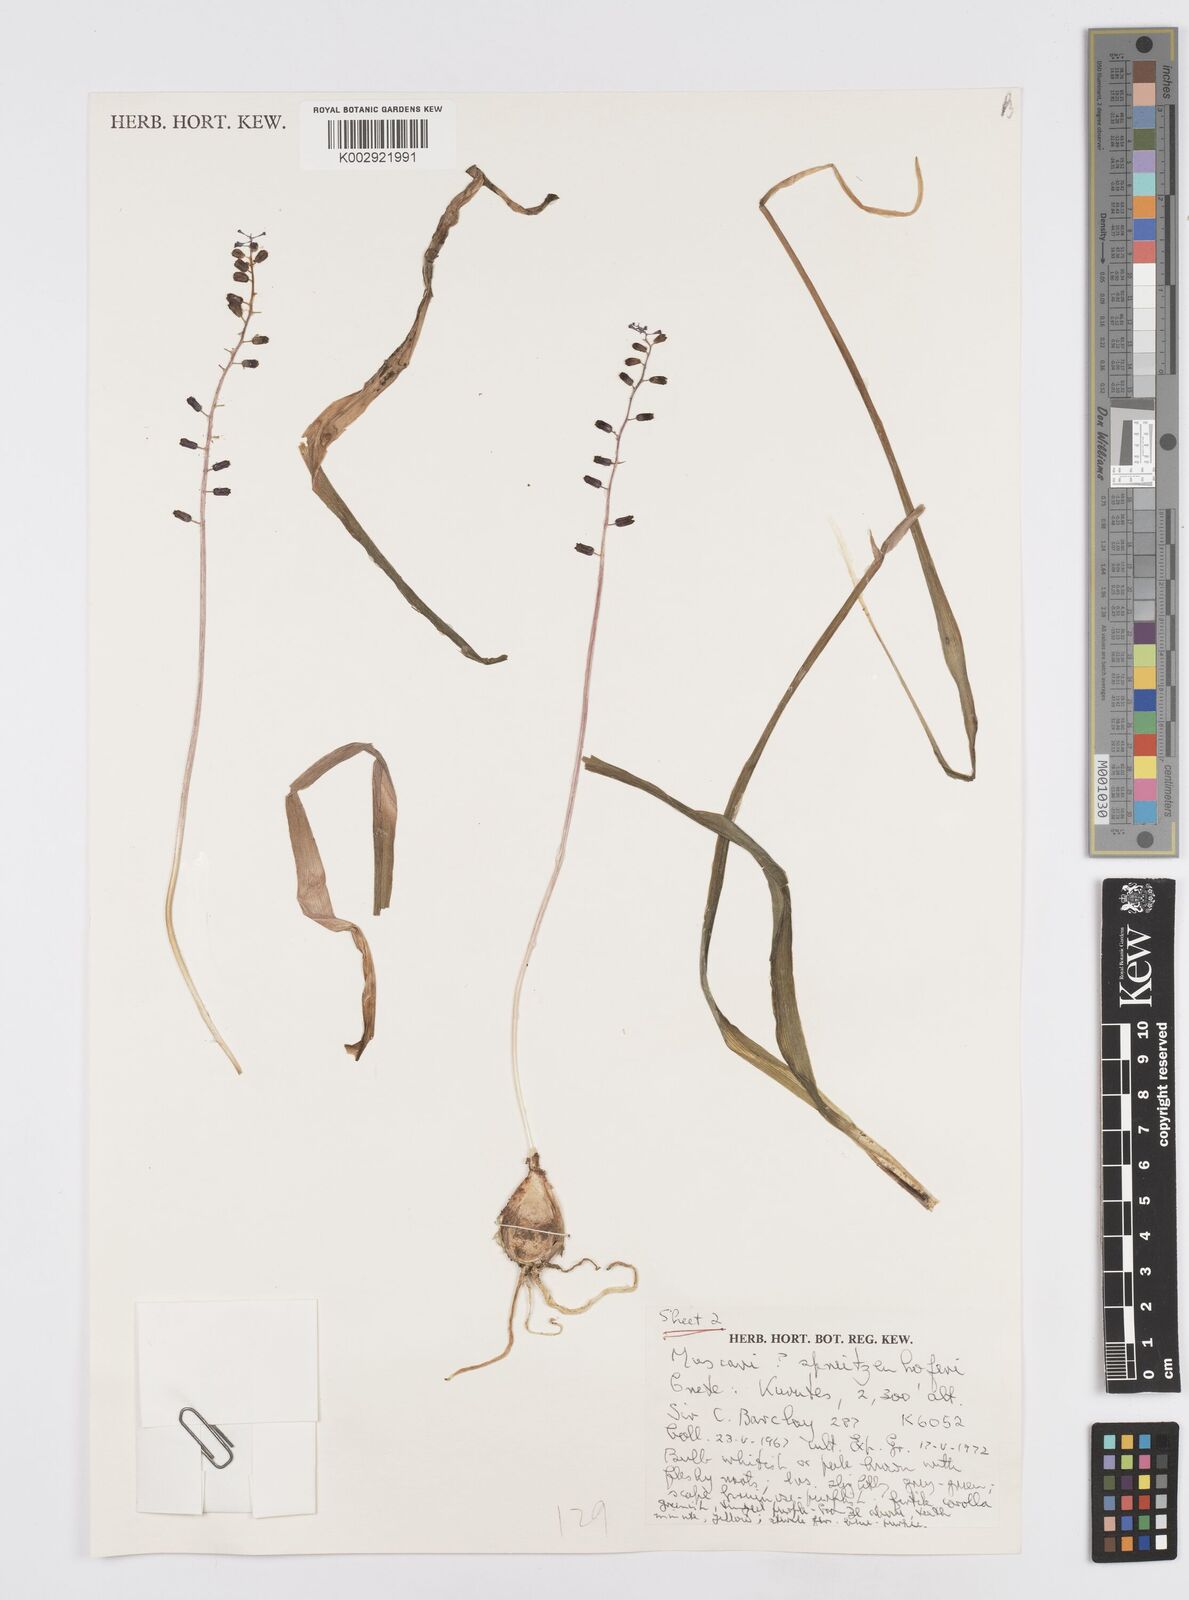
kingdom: Plantae
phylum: Tracheophyta
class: Liliopsida
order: Asparagales
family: Asparagaceae
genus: Muscari
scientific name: Muscari spreitzenhoferi
